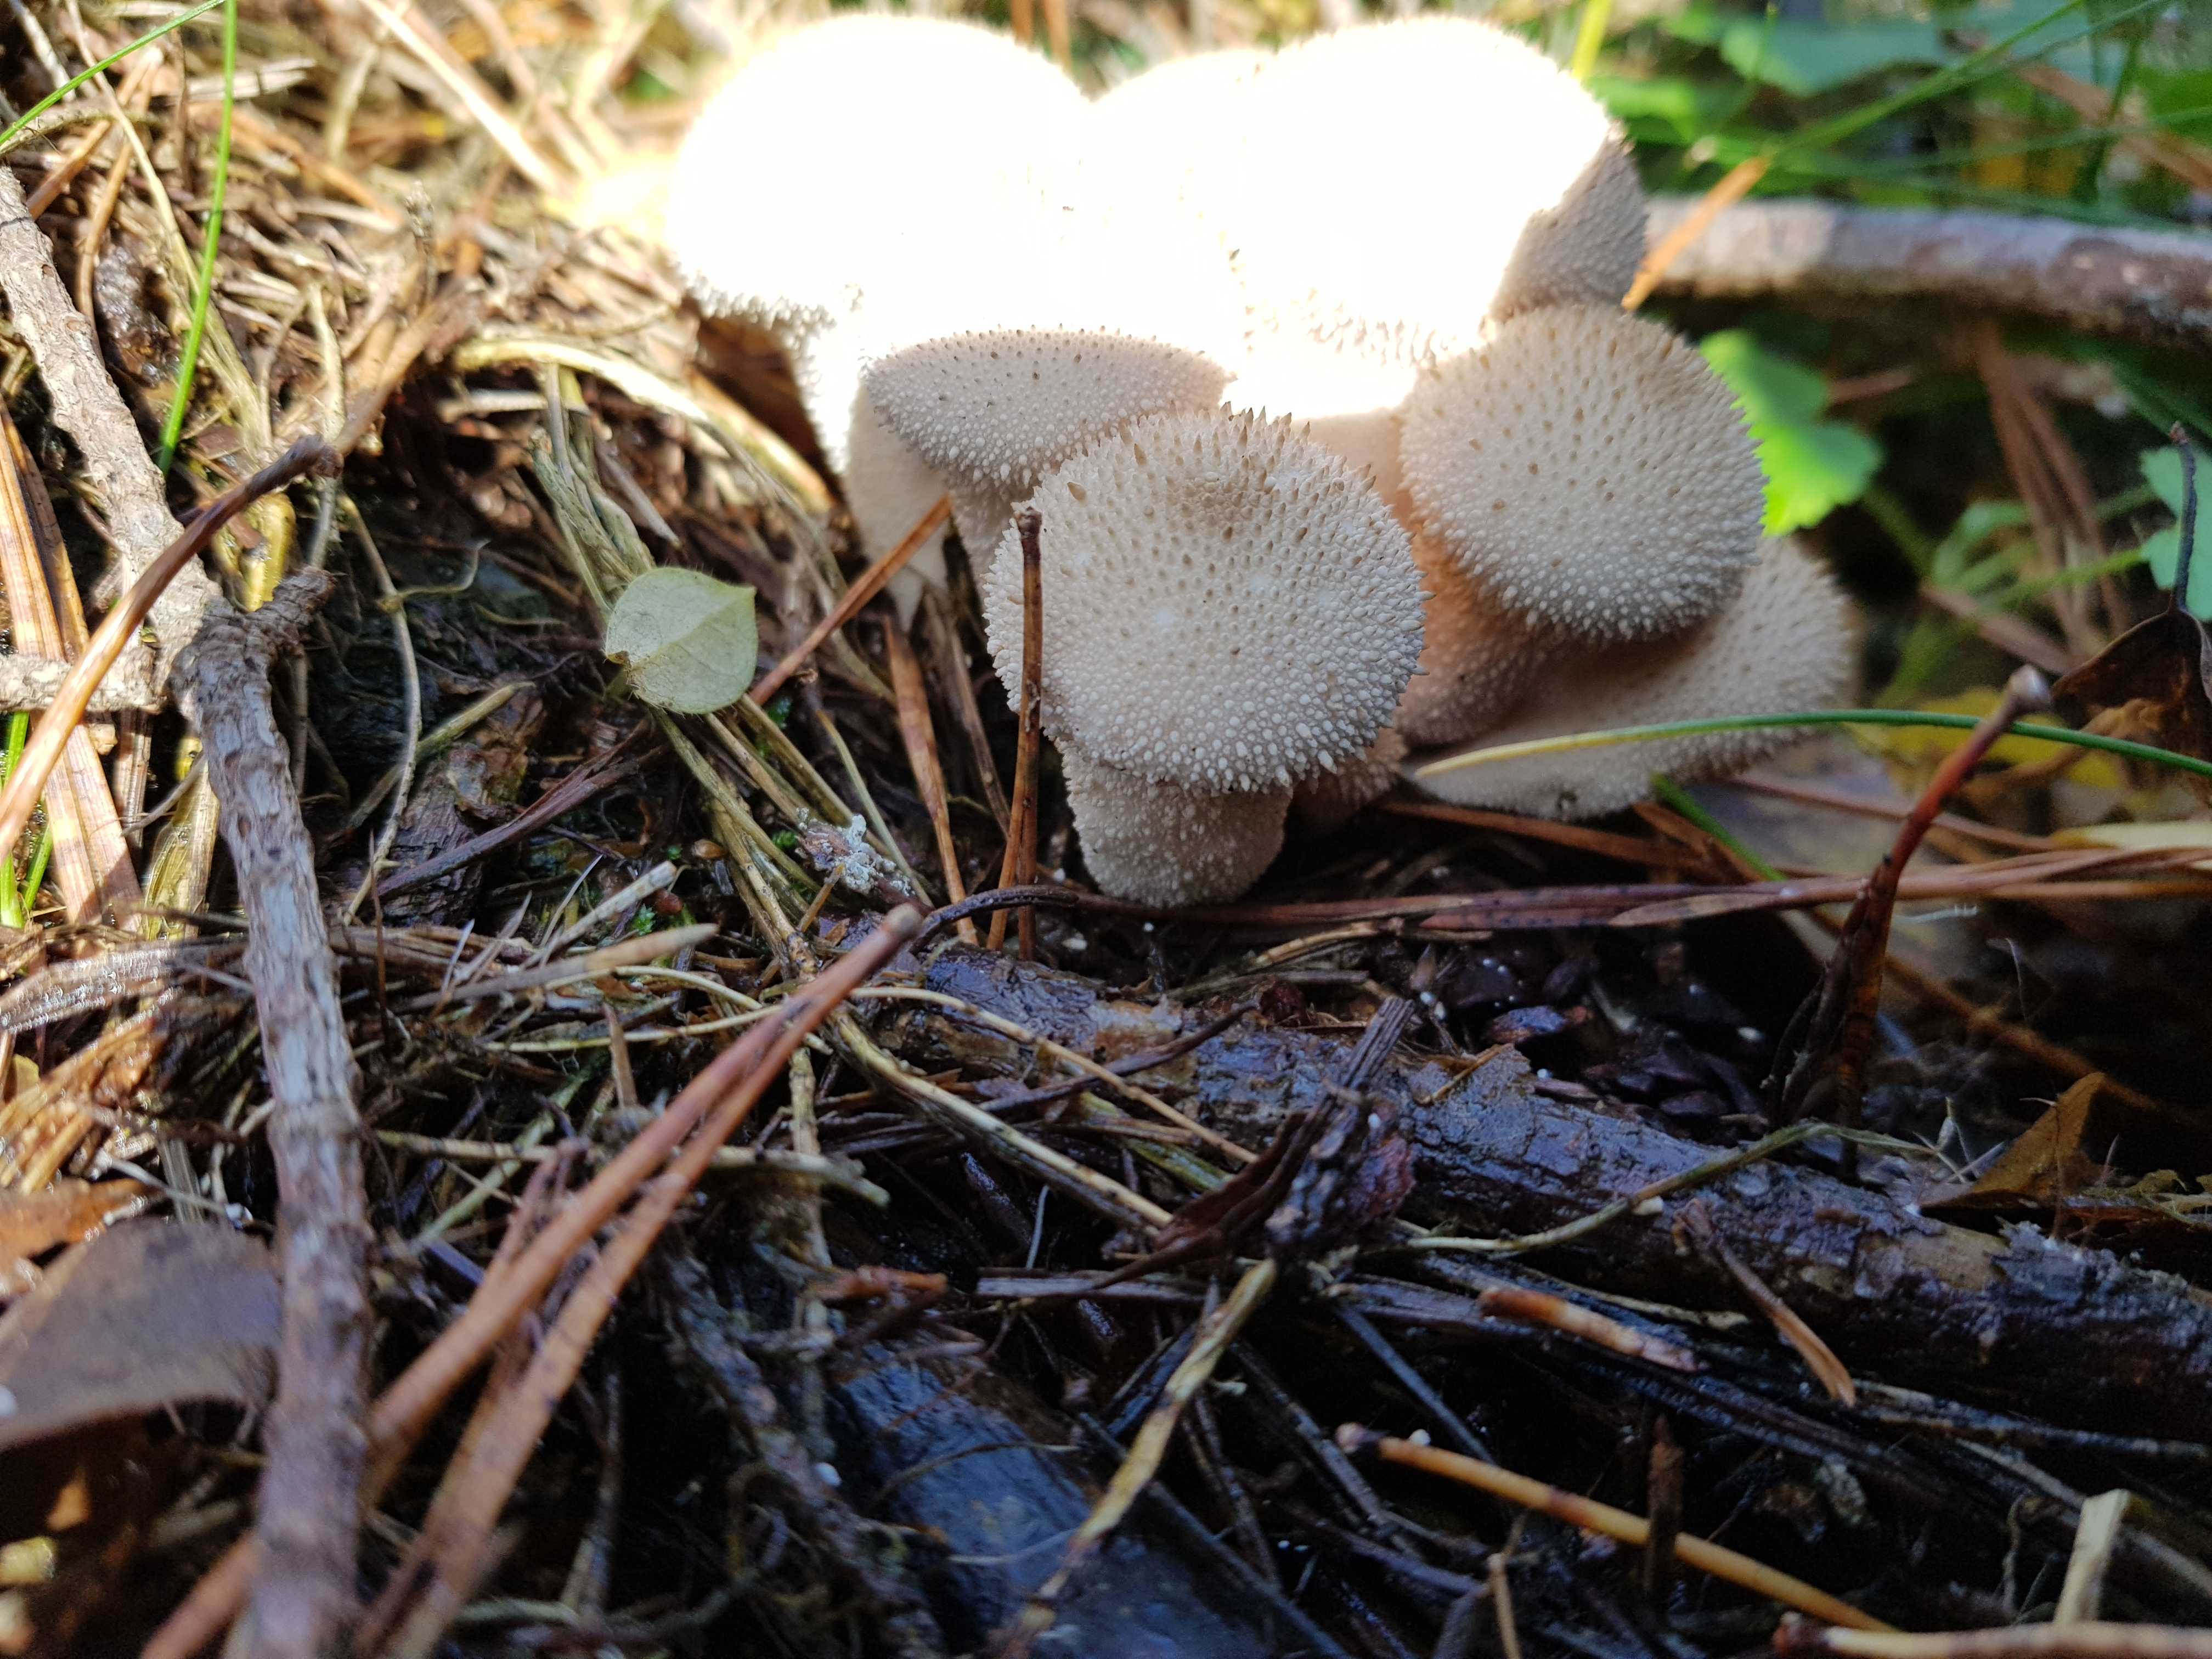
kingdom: Fungi
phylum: Basidiomycota
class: Agaricomycetes
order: Agaricales
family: Lycoperdaceae
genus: Lycoperdon
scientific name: Lycoperdon perlatum
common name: krystal-støvbold
